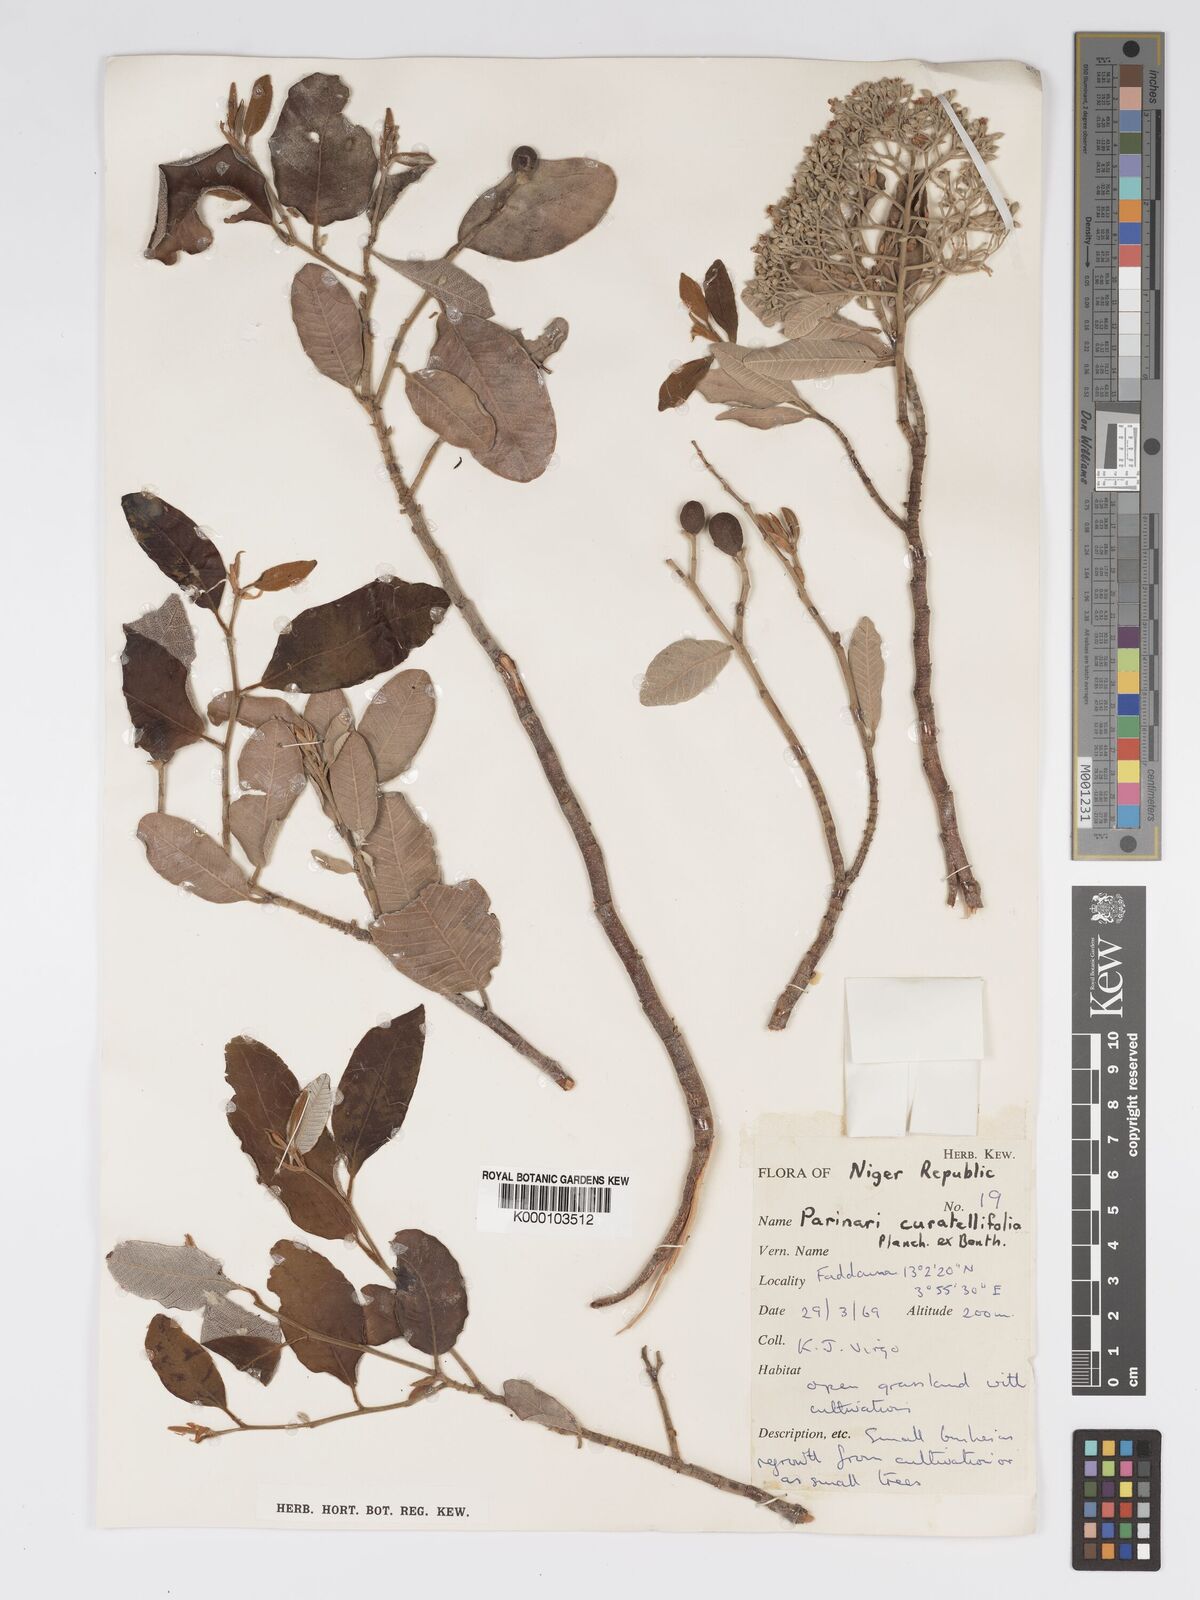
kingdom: Plantae
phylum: Tracheophyta
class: Magnoliopsida
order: Malpighiales
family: Chrysobalanaceae
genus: Parinari
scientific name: Parinari curatellifolia
